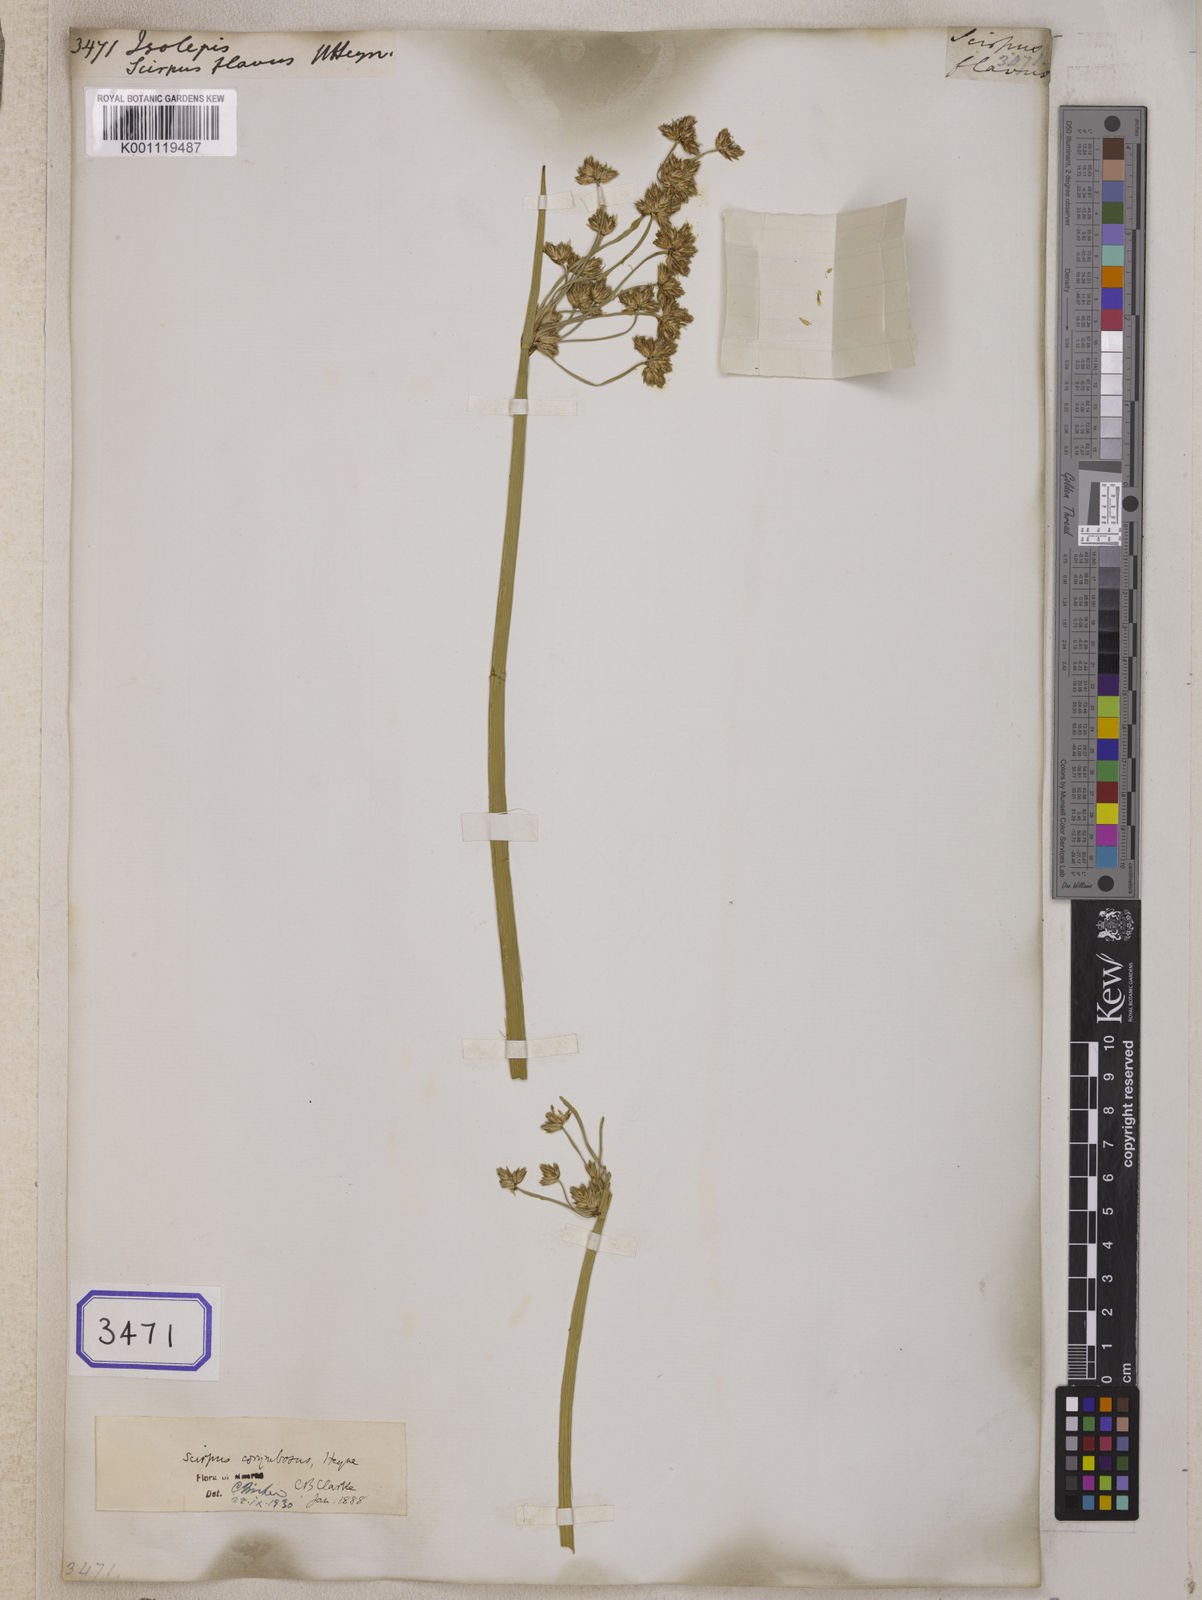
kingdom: Plantae
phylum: Tracheophyta
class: Liliopsida
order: Poales
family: Cyperaceae
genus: Isolepis
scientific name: Isolepis
